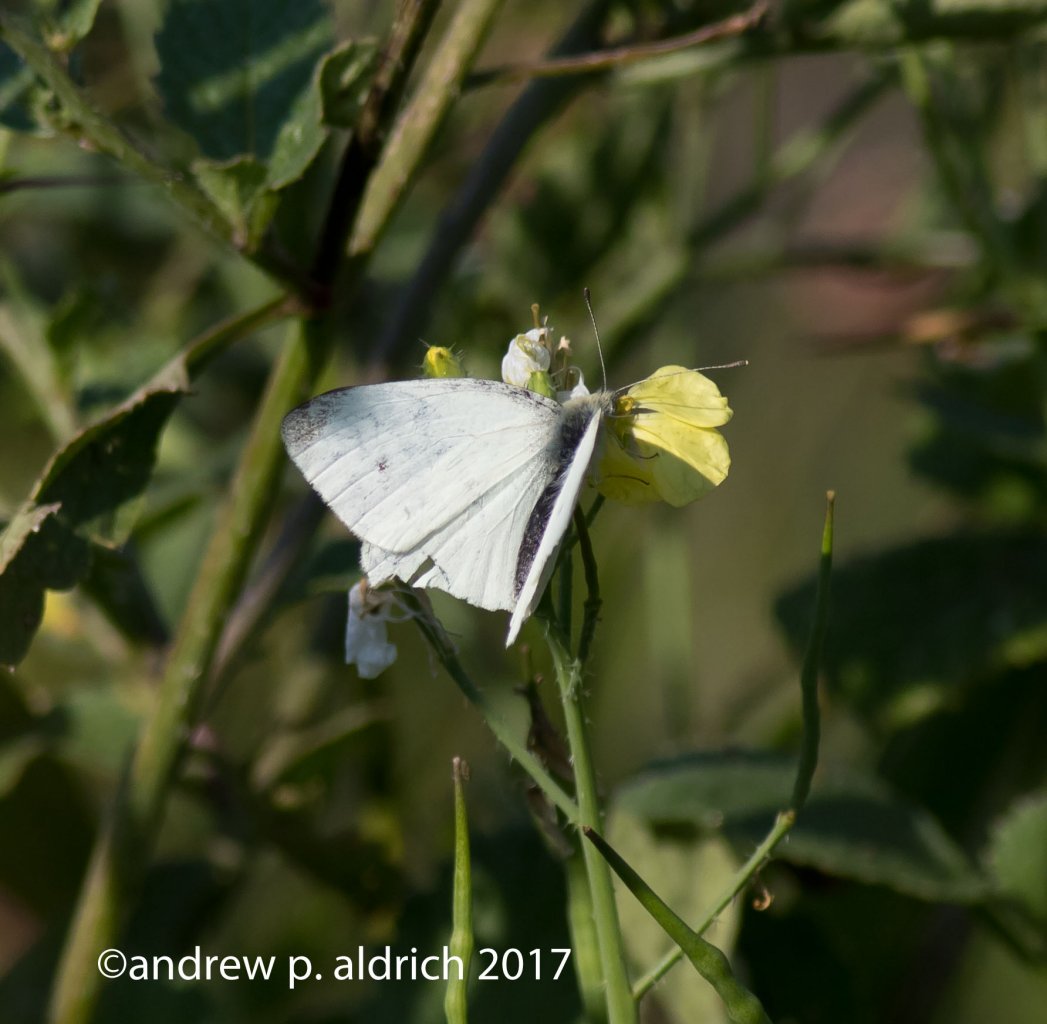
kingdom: Animalia
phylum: Arthropoda
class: Insecta
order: Lepidoptera
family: Pieridae
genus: Pieris
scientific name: Pieris rapae
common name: Cabbage White
